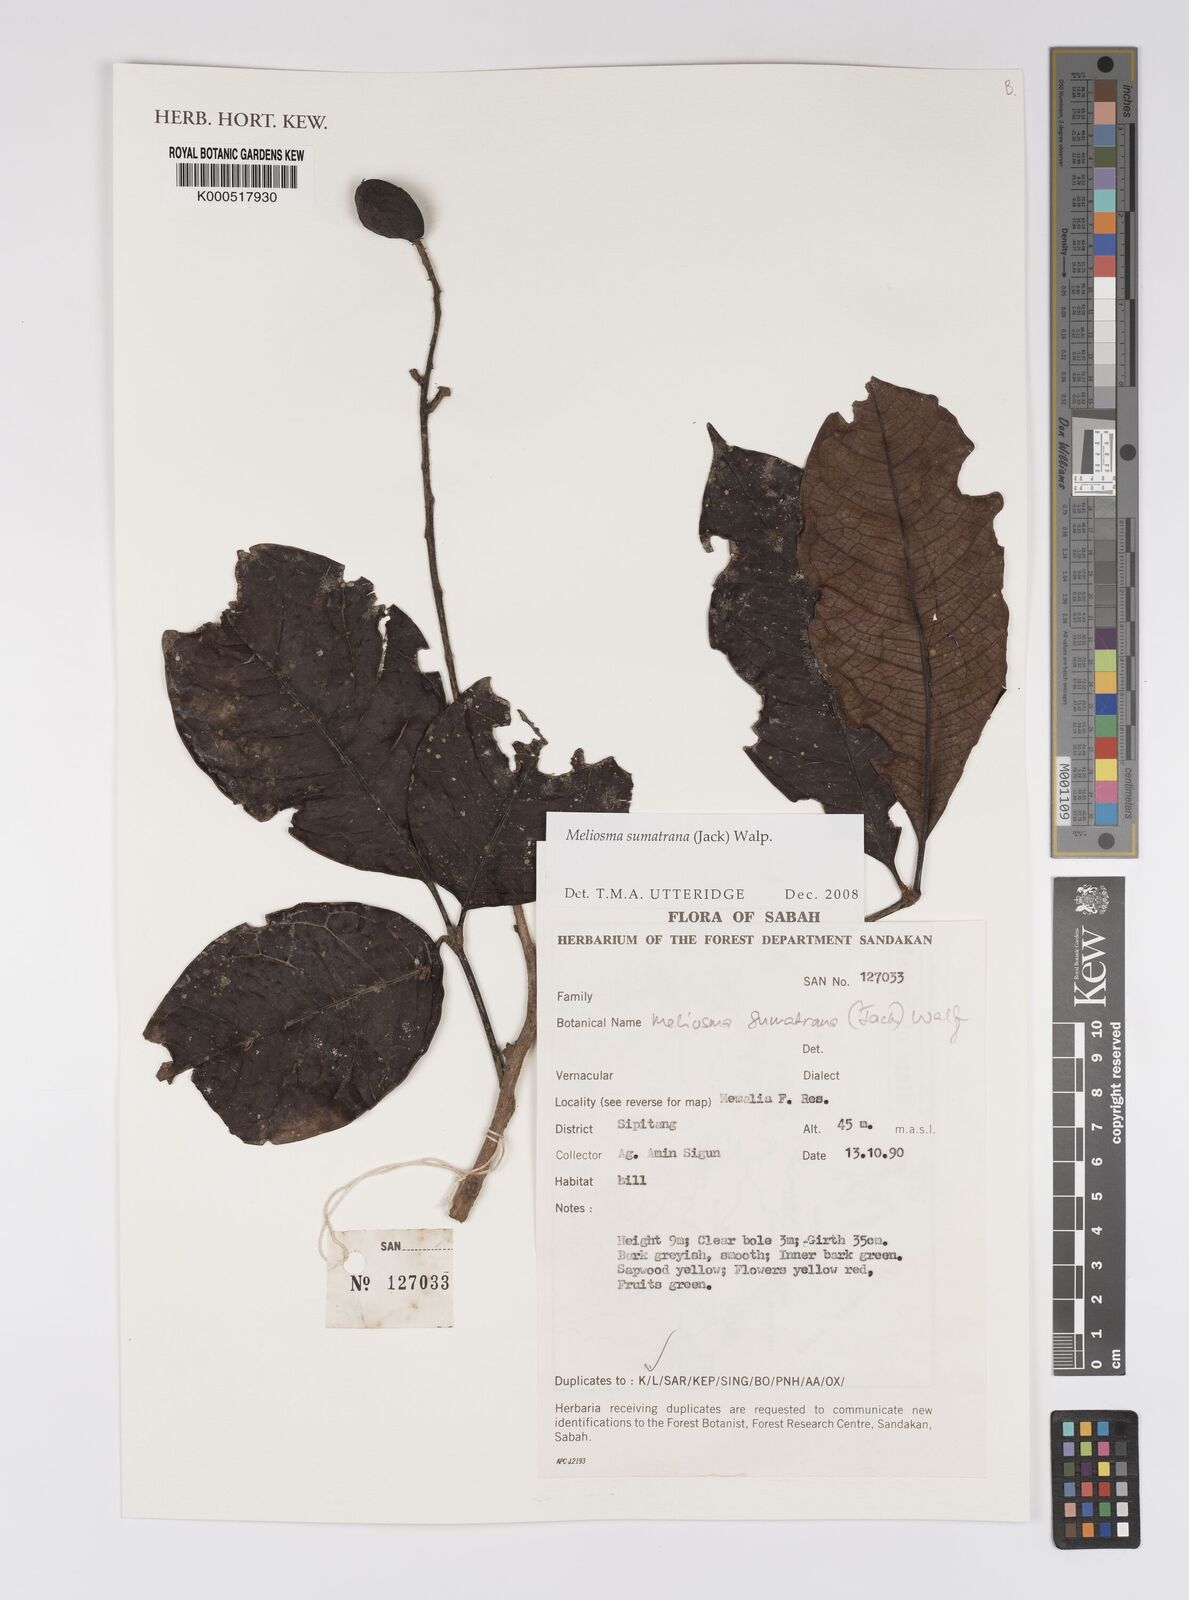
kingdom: Plantae
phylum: Tracheophyta
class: Magnoliopsida
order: Proteales
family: Sabiaceae
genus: Meliosma
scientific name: Meliosma sumatrana
